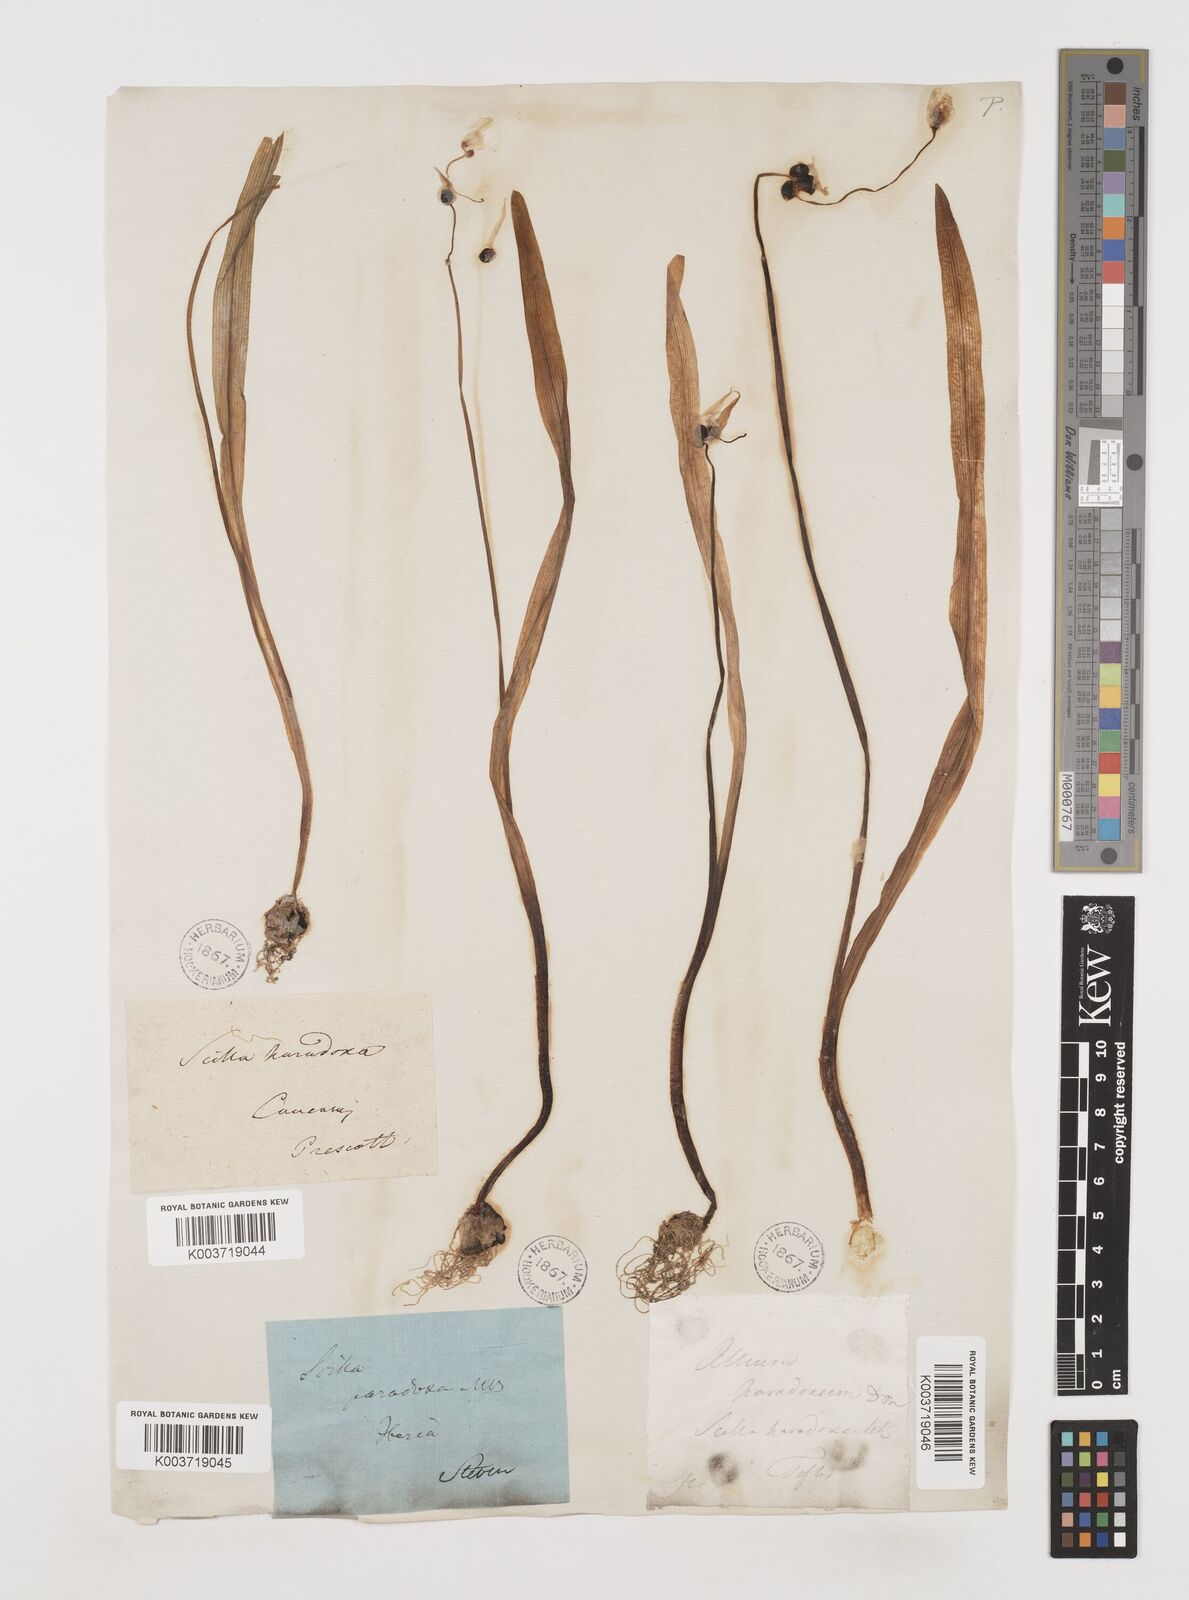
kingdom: Plantae
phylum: Tracheophyta
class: Liliopsida
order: Asparagales
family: Amaryllidaceae
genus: Allium
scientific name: Allium paradoxum
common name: Few-flowered garlic
